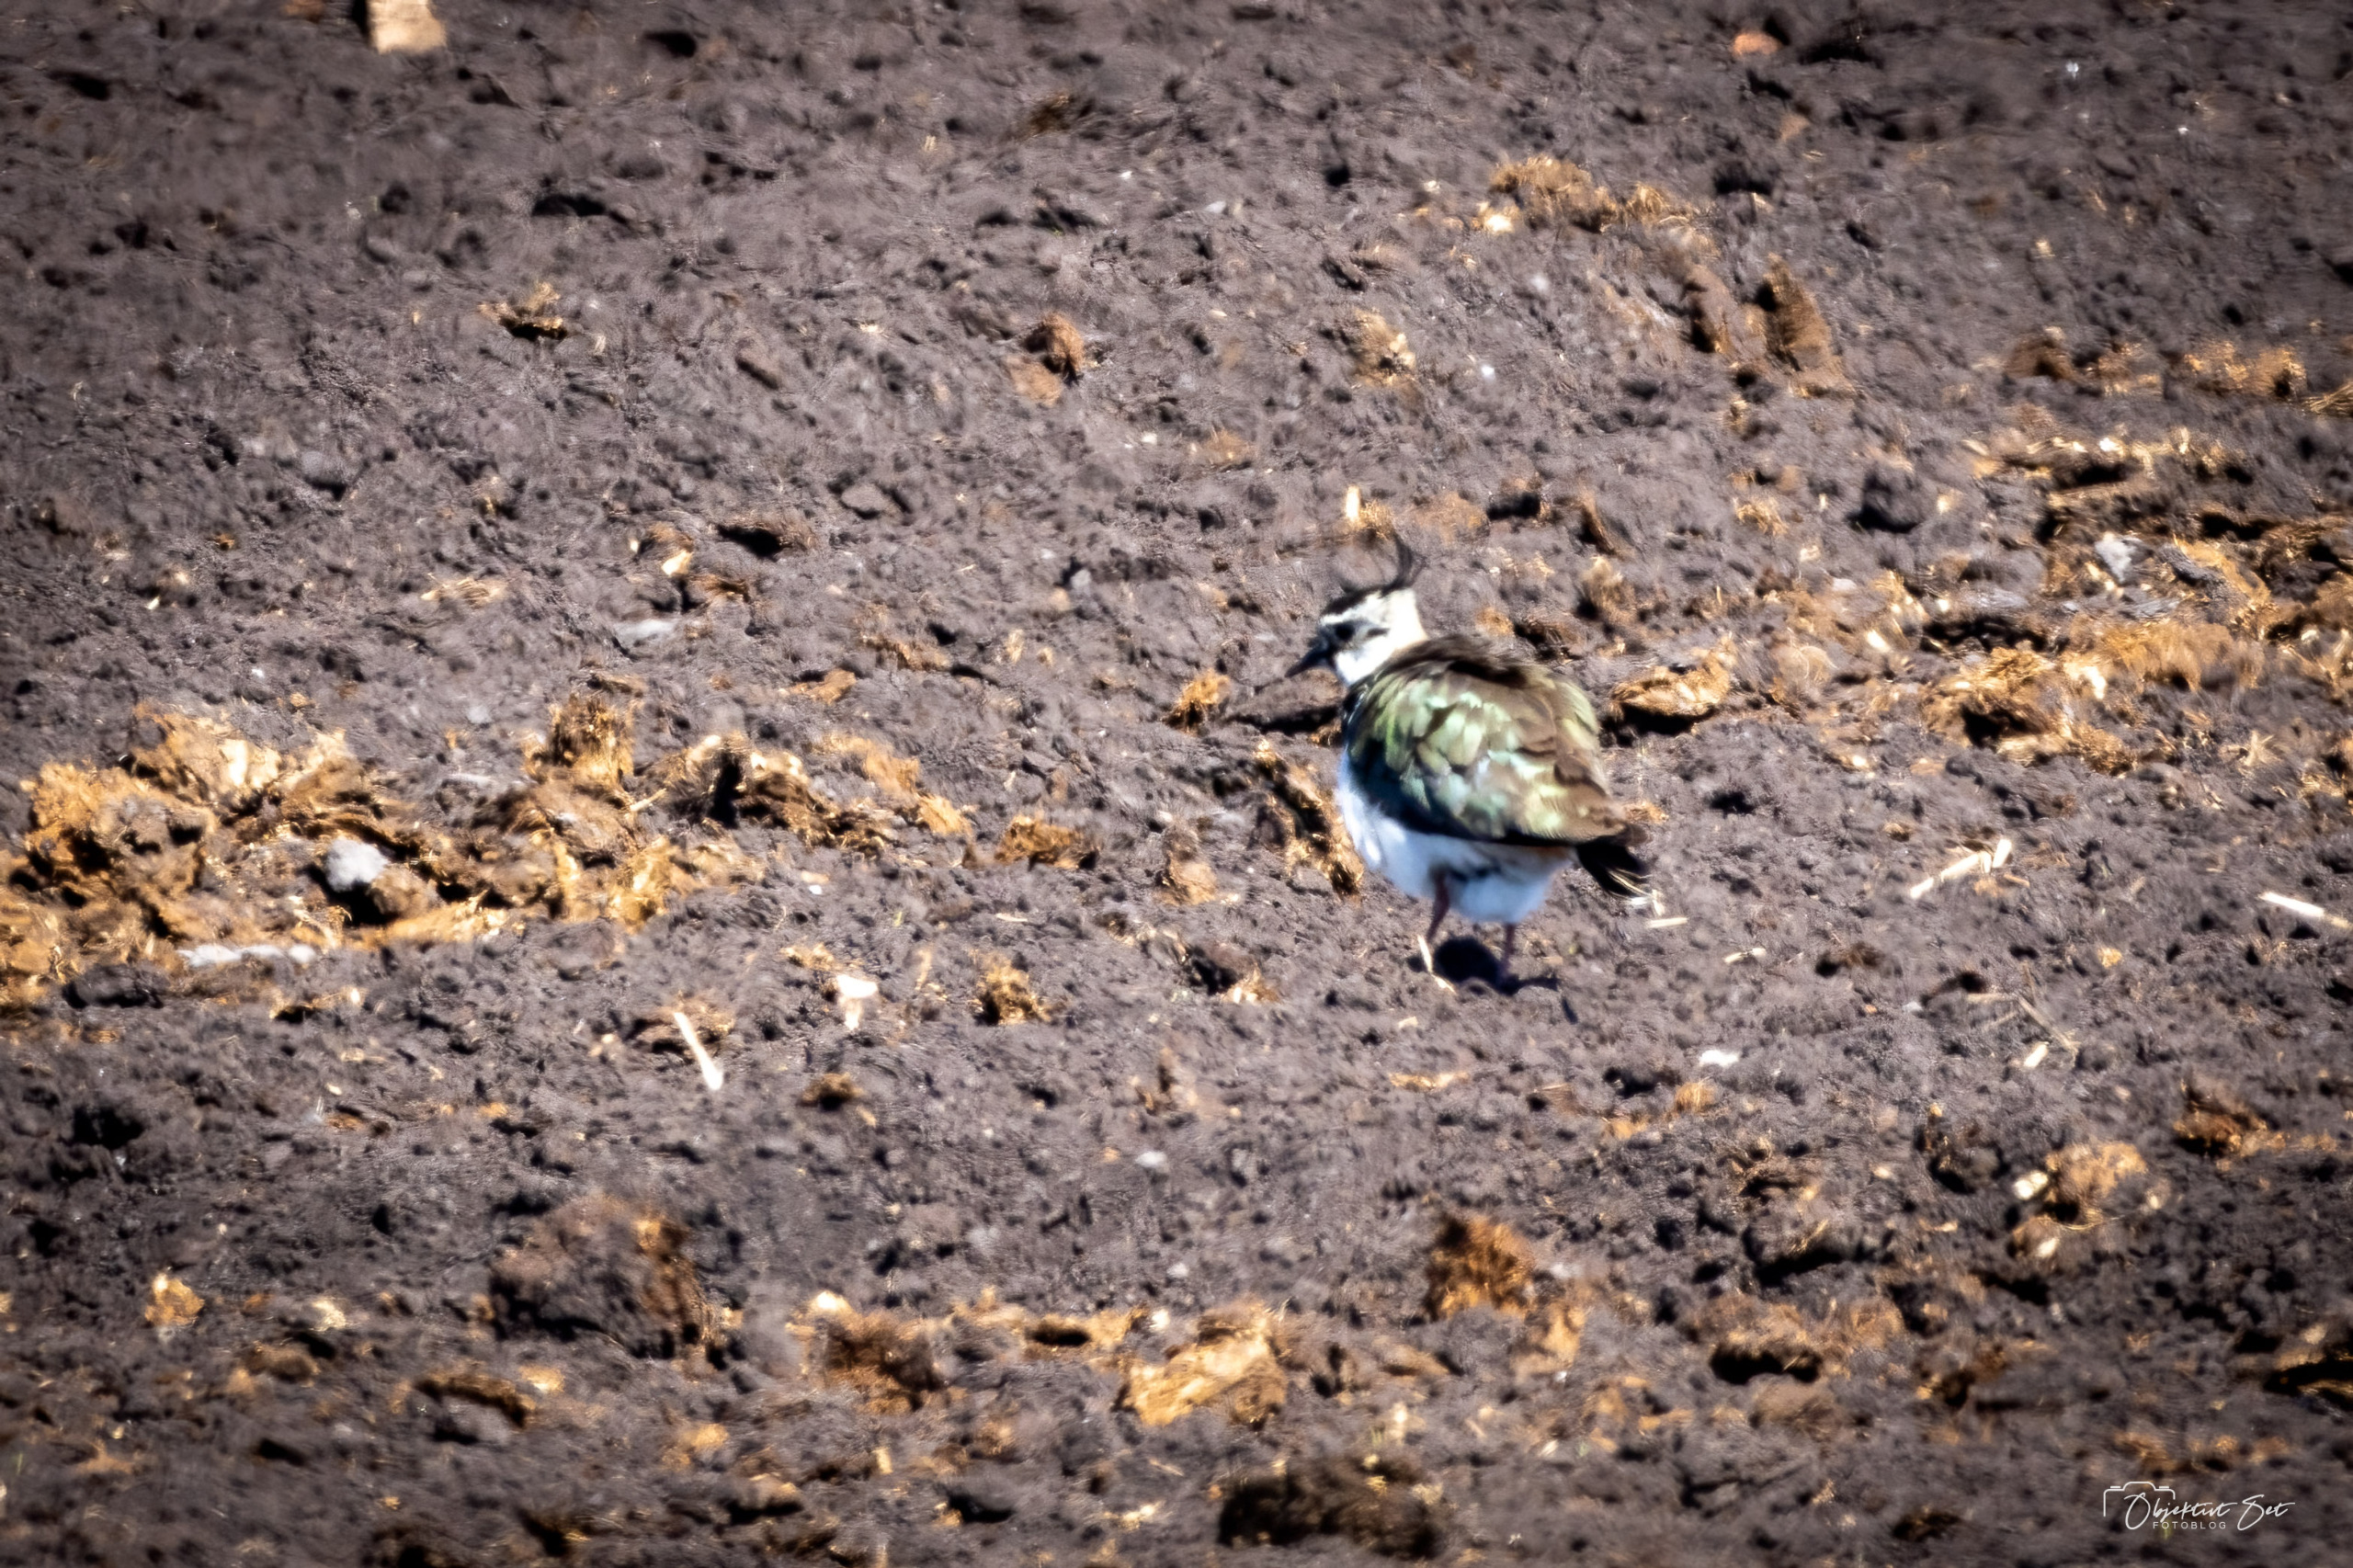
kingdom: Animalia
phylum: Chordata
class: Aves
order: Charadriiformes
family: Charadriidae
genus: Vanellus
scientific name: Vanellus vanellus
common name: Vibe
